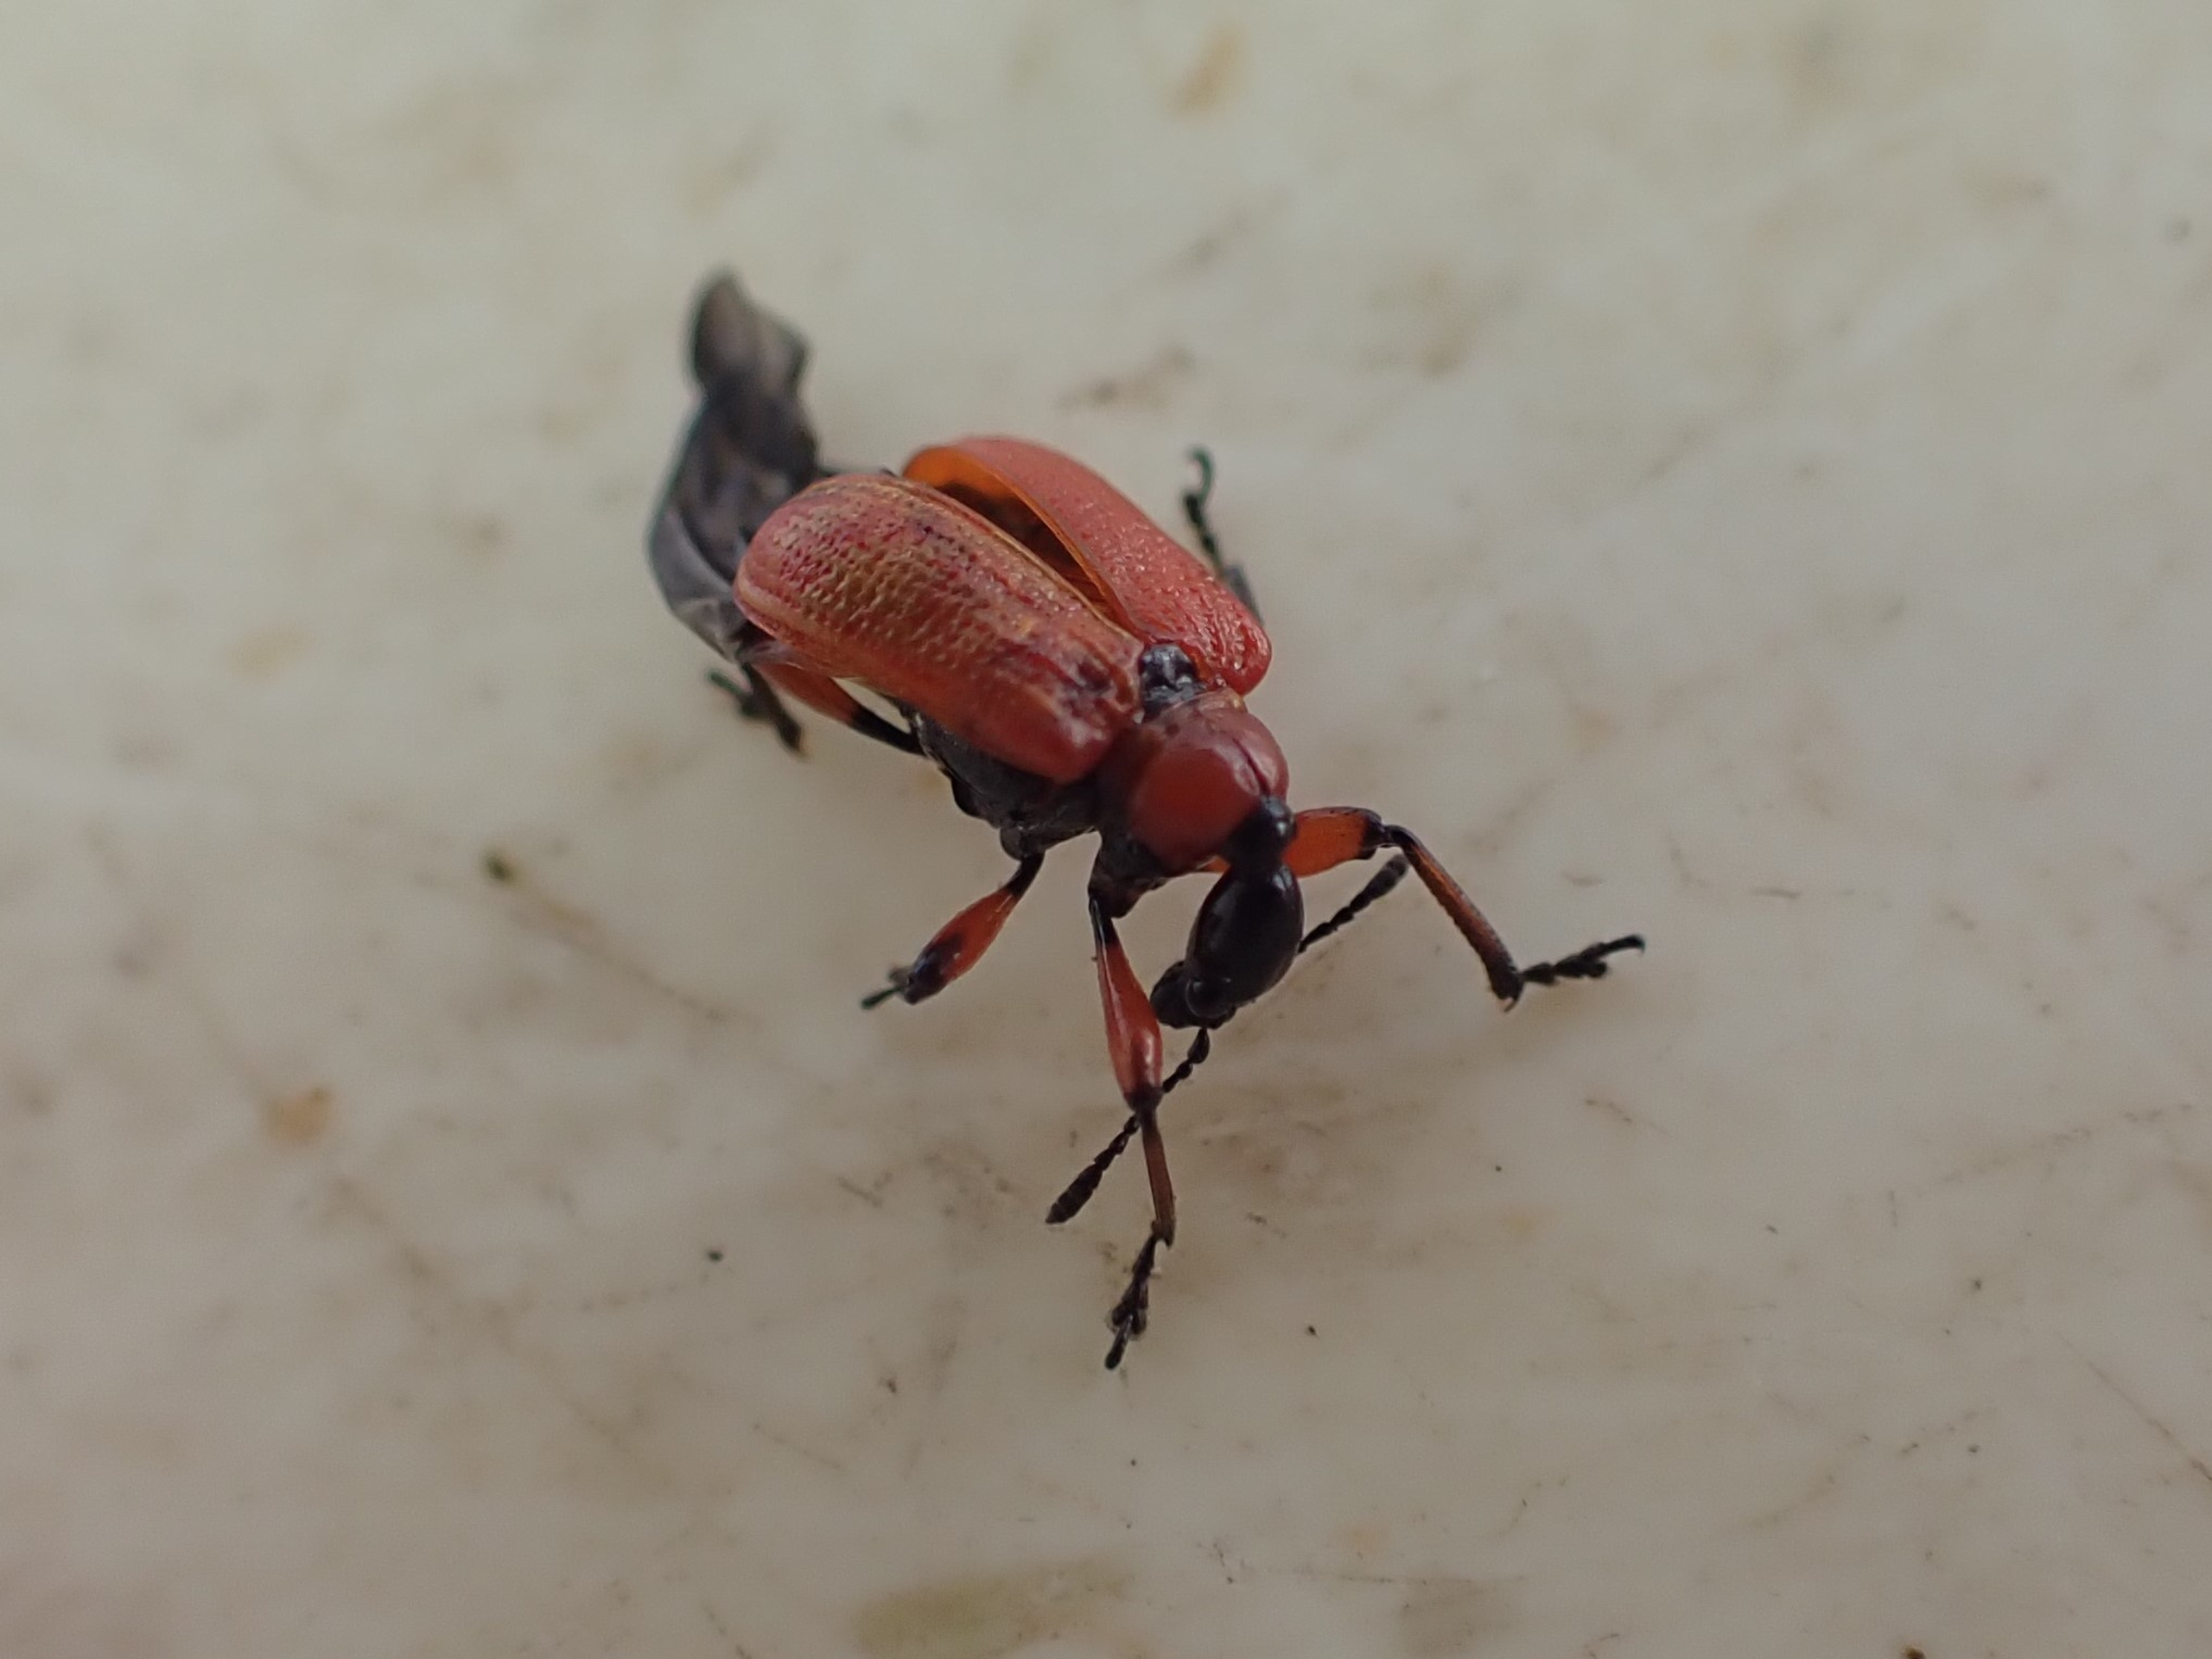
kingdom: Animalia
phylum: Arthropoda
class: Insecta
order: Coleoptera
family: Attelabidae
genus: Apoderus
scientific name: Apoderus coryli
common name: Hasselbladruller
